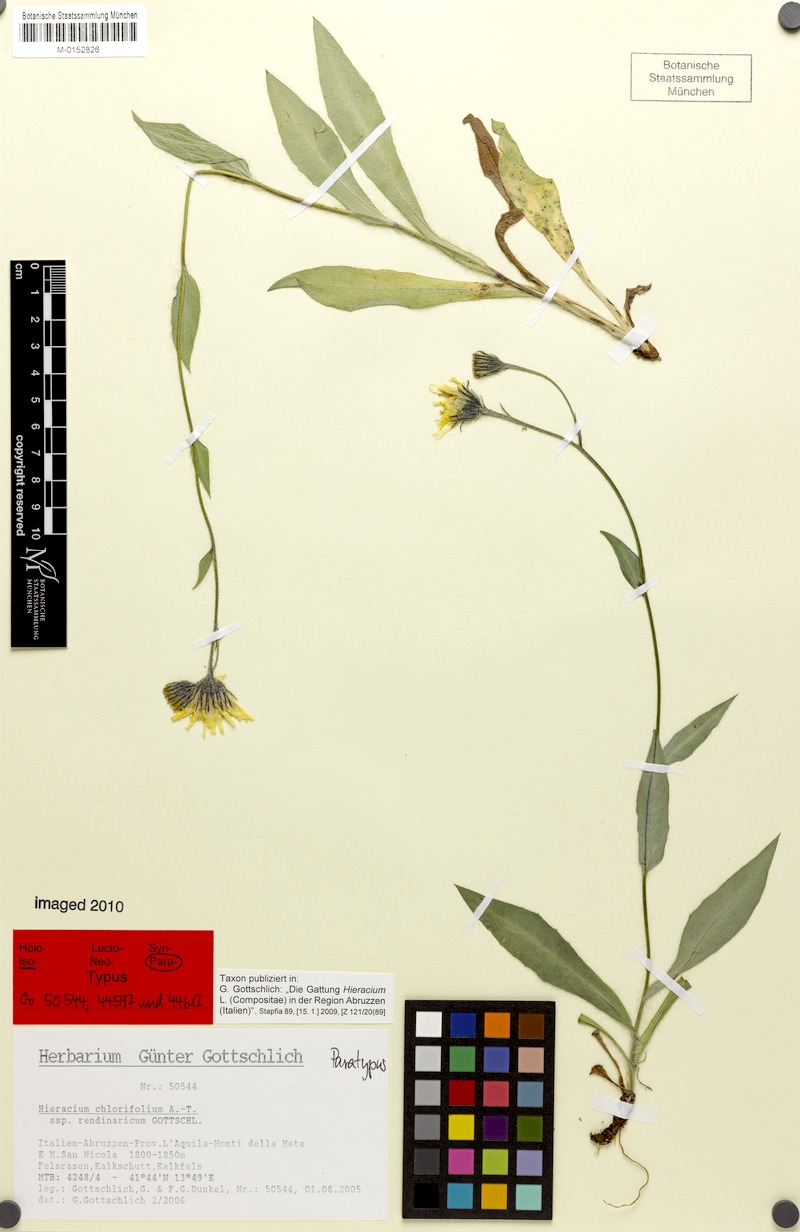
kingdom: Plantae
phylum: Tracheophyta
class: Magnoliopsida
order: Asterales
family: Asteraceae
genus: Hieracium
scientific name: Hieracium chlorifolium
